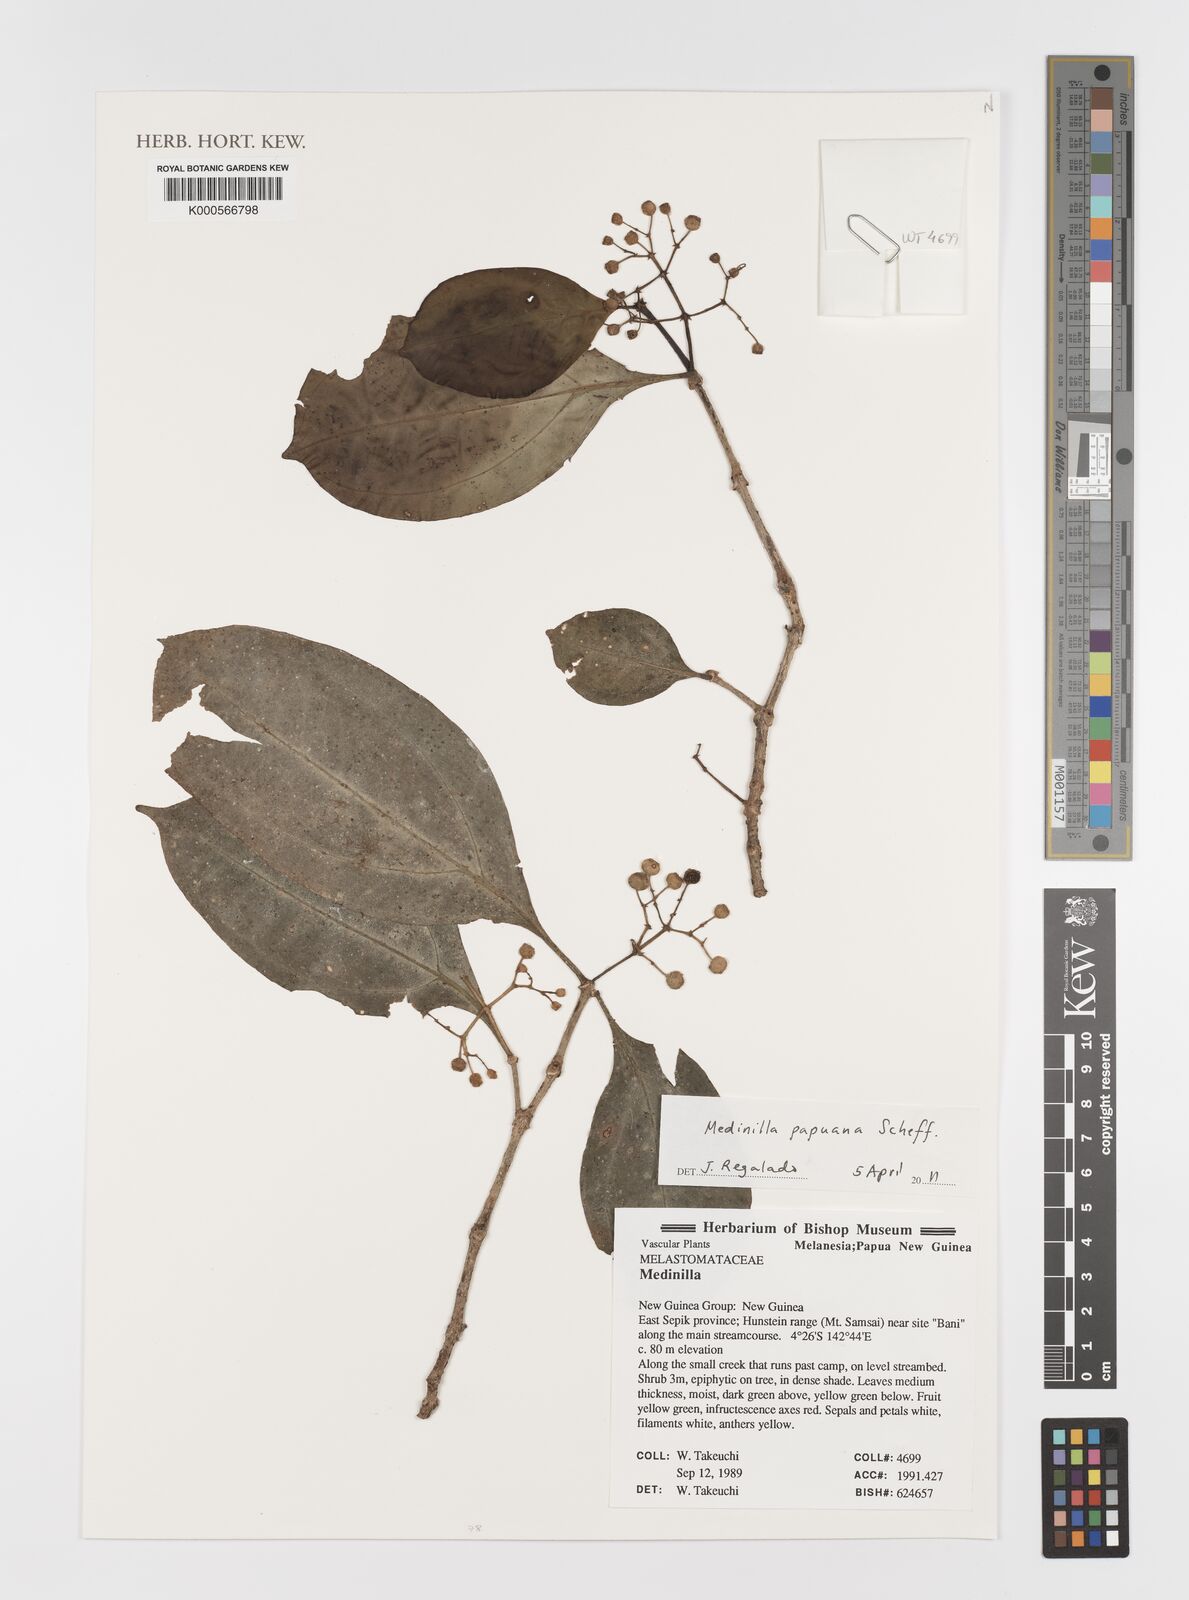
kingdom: Plantae
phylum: Tracheophyta
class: Magnoliopsida
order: Myrtales
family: Melastomataceae
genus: Medinilla
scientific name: Medinilla papuana
